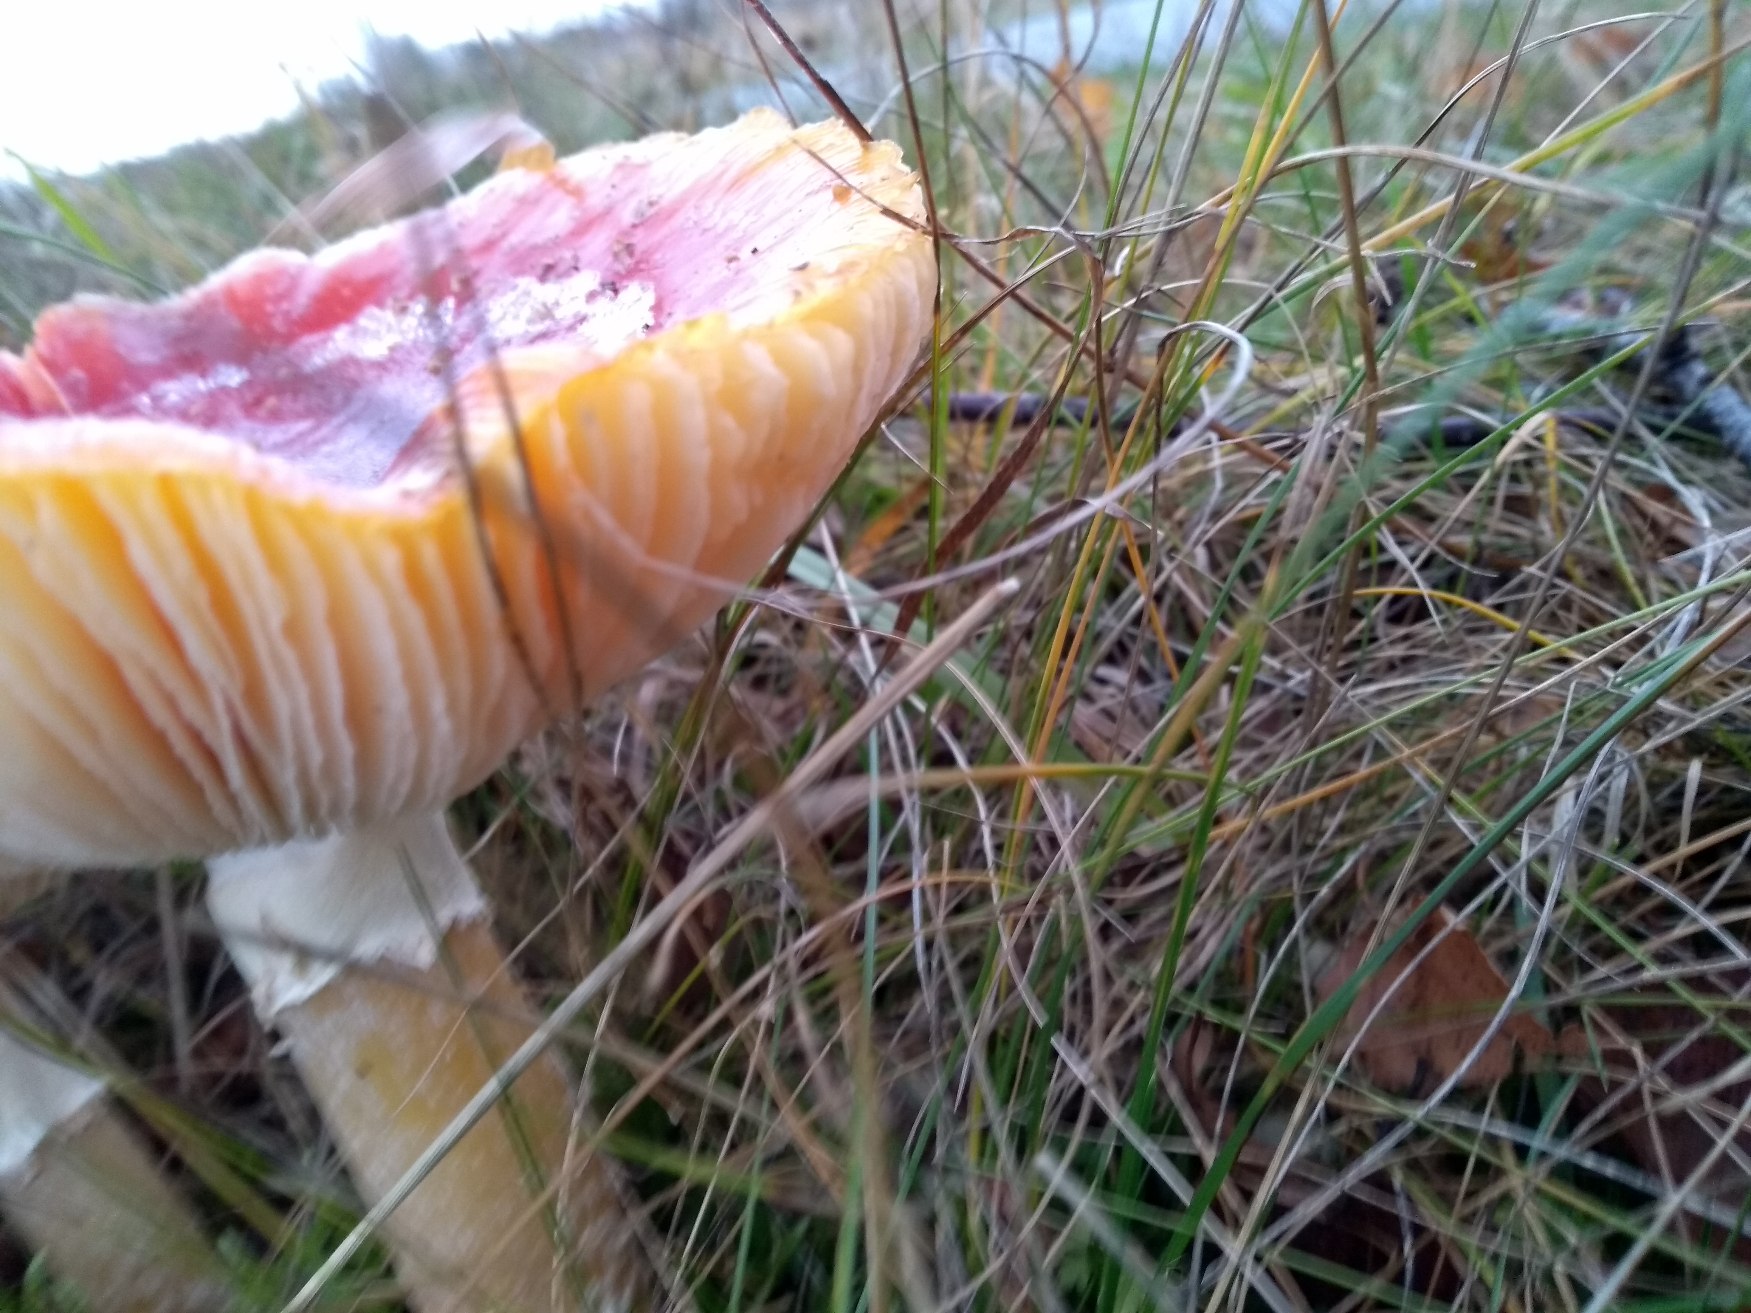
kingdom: Fungi
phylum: Basidiomycota
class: Agaricomycetes
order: Agaricales
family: Amanitaceae
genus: Amanita
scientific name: Amanita muscaria
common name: Rød fluesvamp
